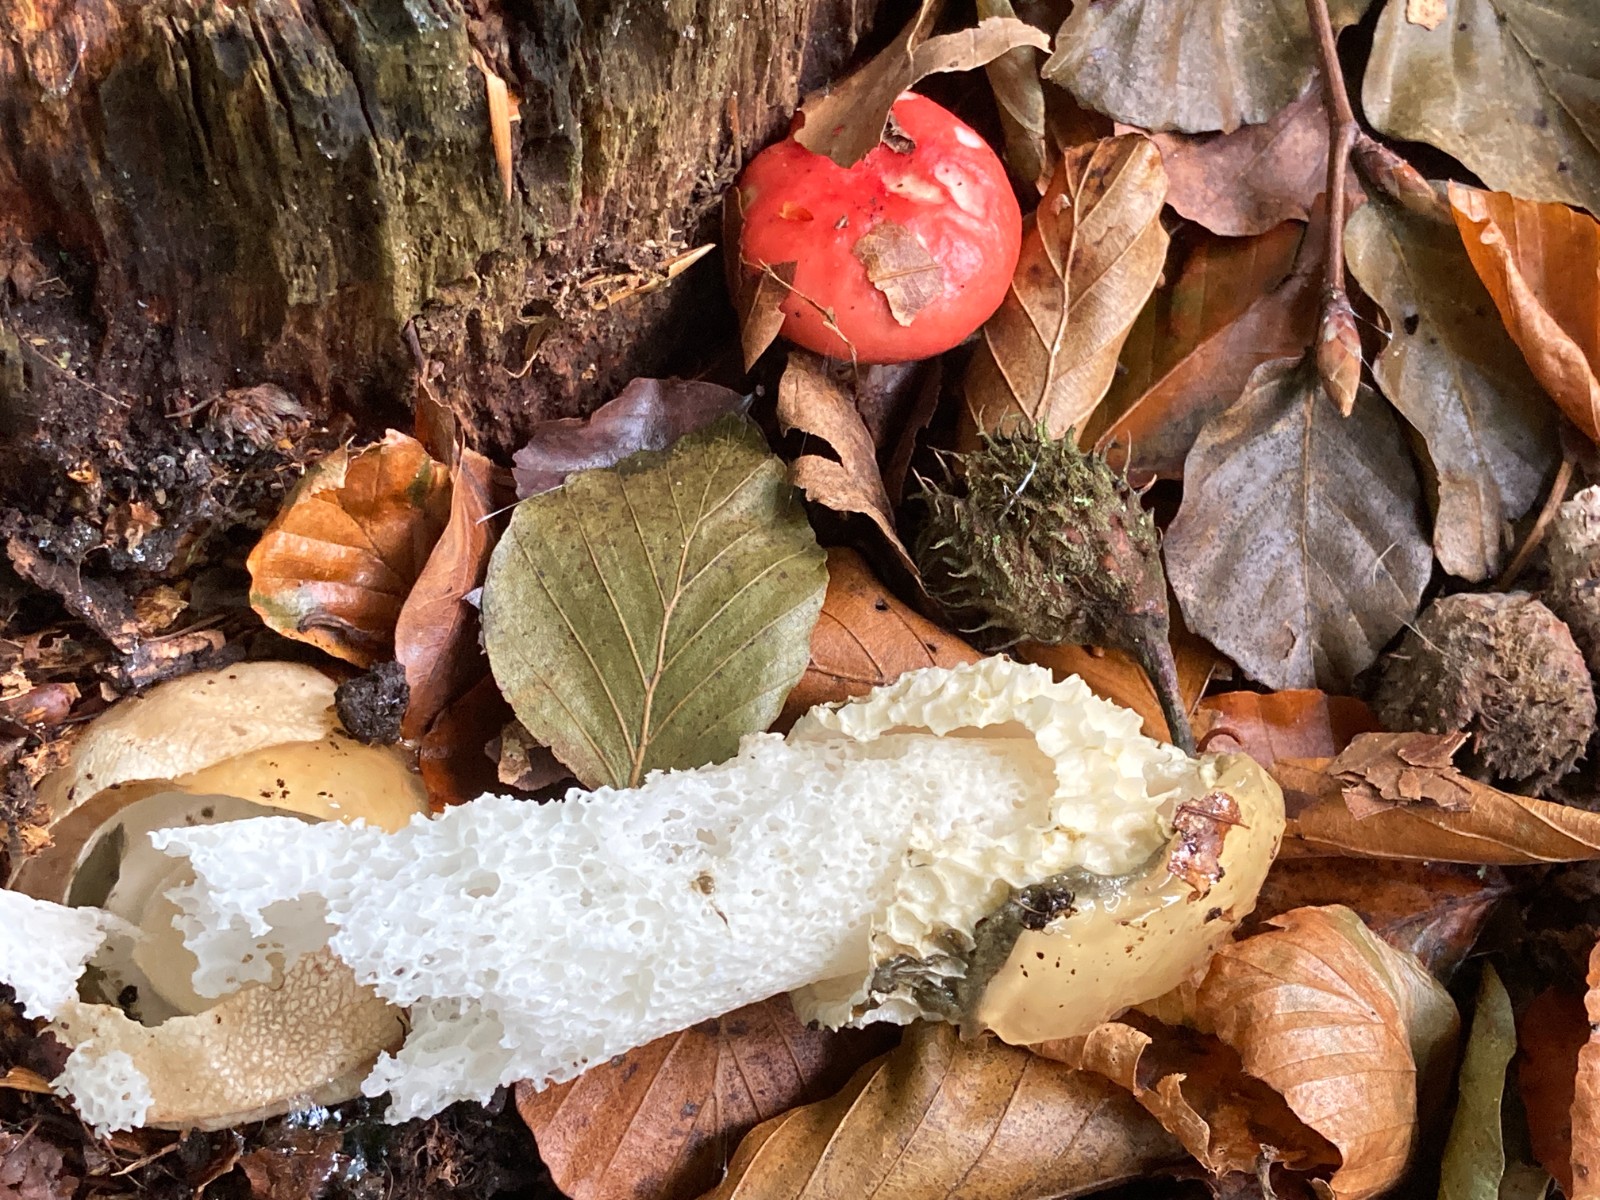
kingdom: Fungi
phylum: Basidiomycota
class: Agaricomycetes
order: Phallales
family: Phallaceae
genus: Phallus
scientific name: Phallus impudicus
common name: almindelig stinksvamp
